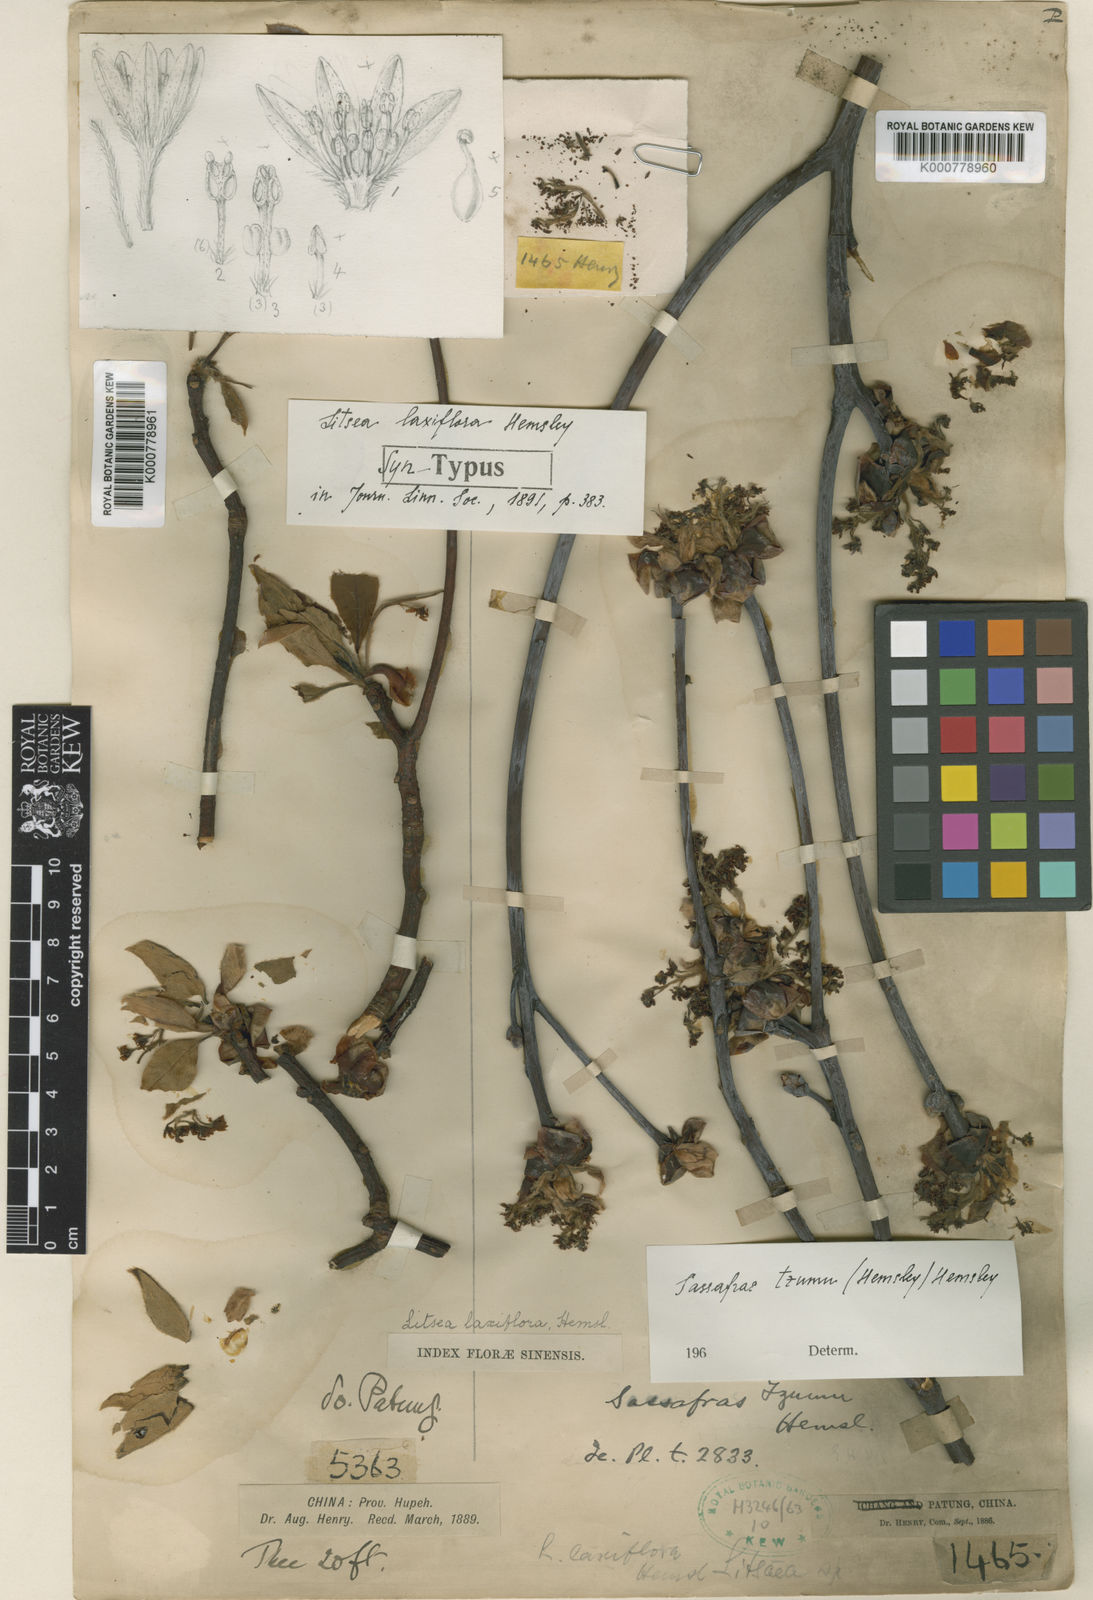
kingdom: Plantae
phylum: Tracheophyta
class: Magnoliopsida
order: Laurales
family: Lauraceae
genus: Sassafras
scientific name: Sassafras tzumu
